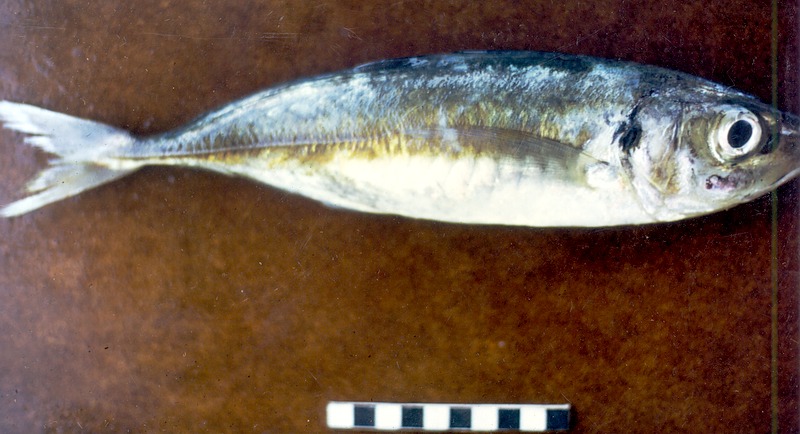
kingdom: Animalia
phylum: Chordata
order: Perciformes
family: Carangidae
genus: Decapterus
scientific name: Decapterus russelli
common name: Indian scad
